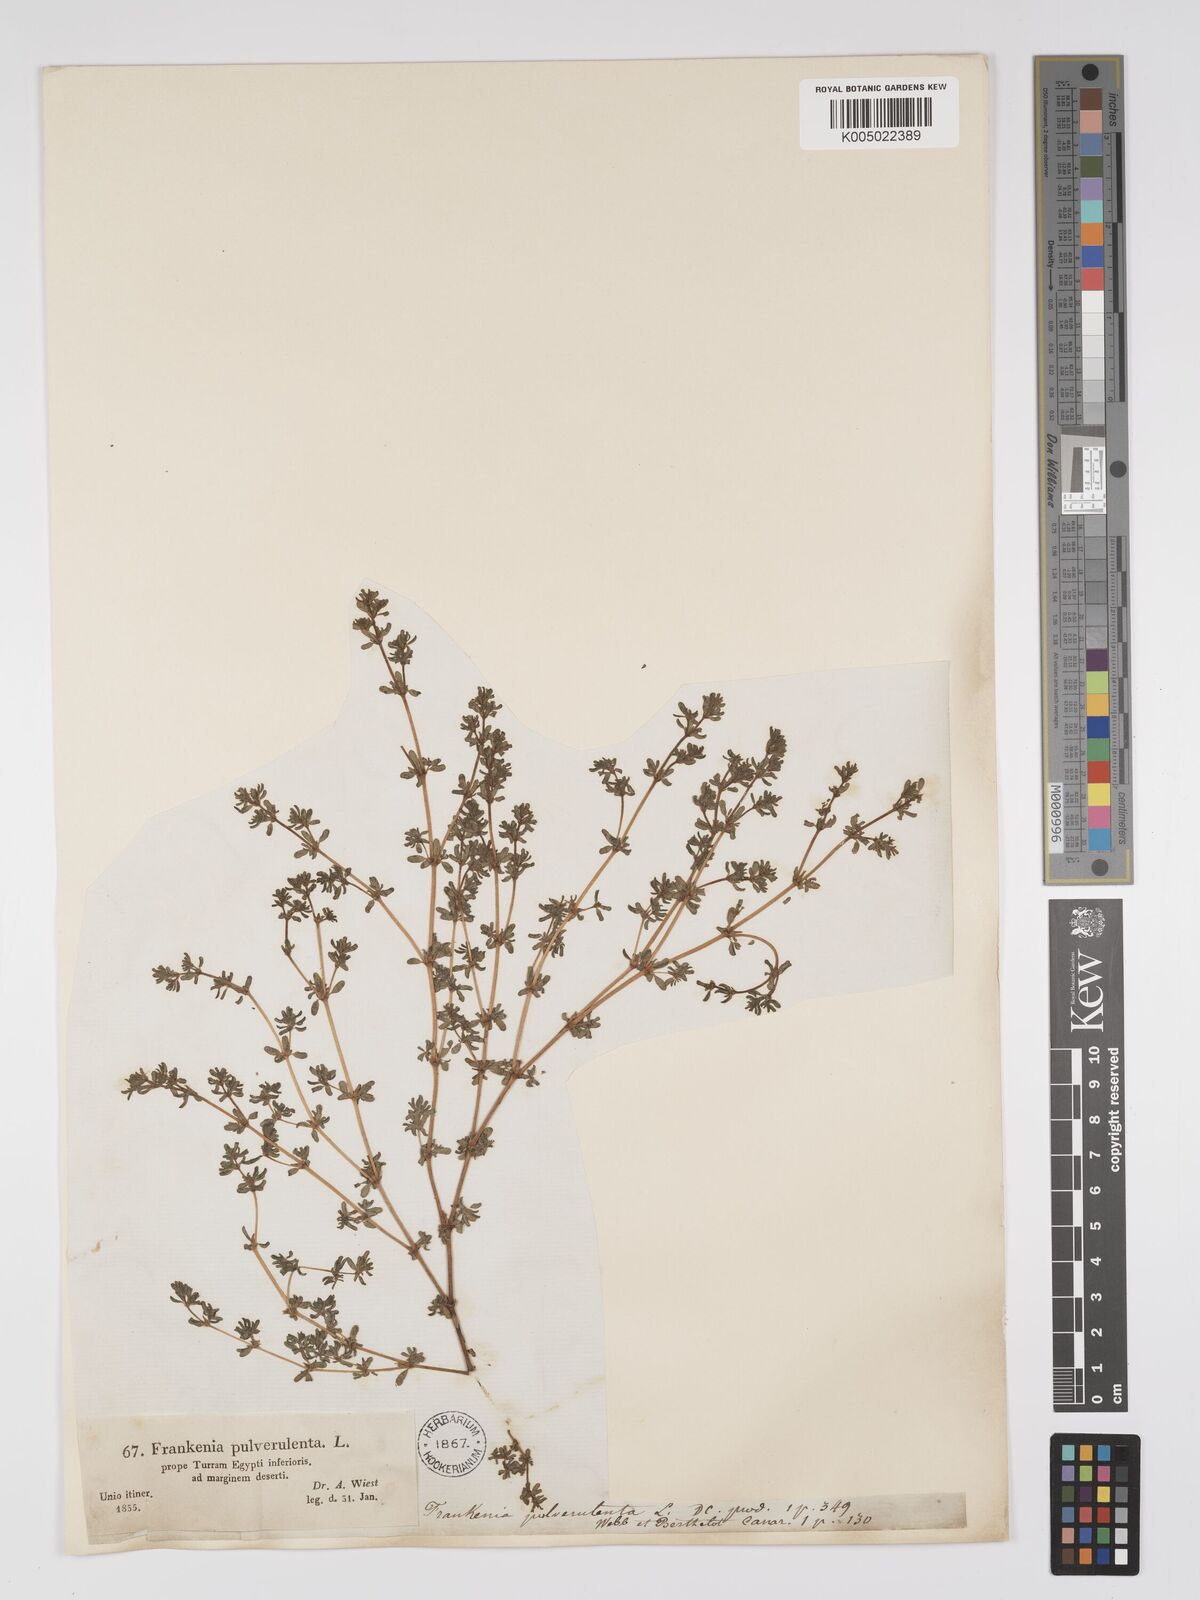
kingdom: Plantae
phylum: Tracheophyta
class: Magnoliopsida
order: Caryophyllales
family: Frankeniaceae
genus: Frankenia
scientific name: Frankenia pulverulenta
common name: European seaheath
